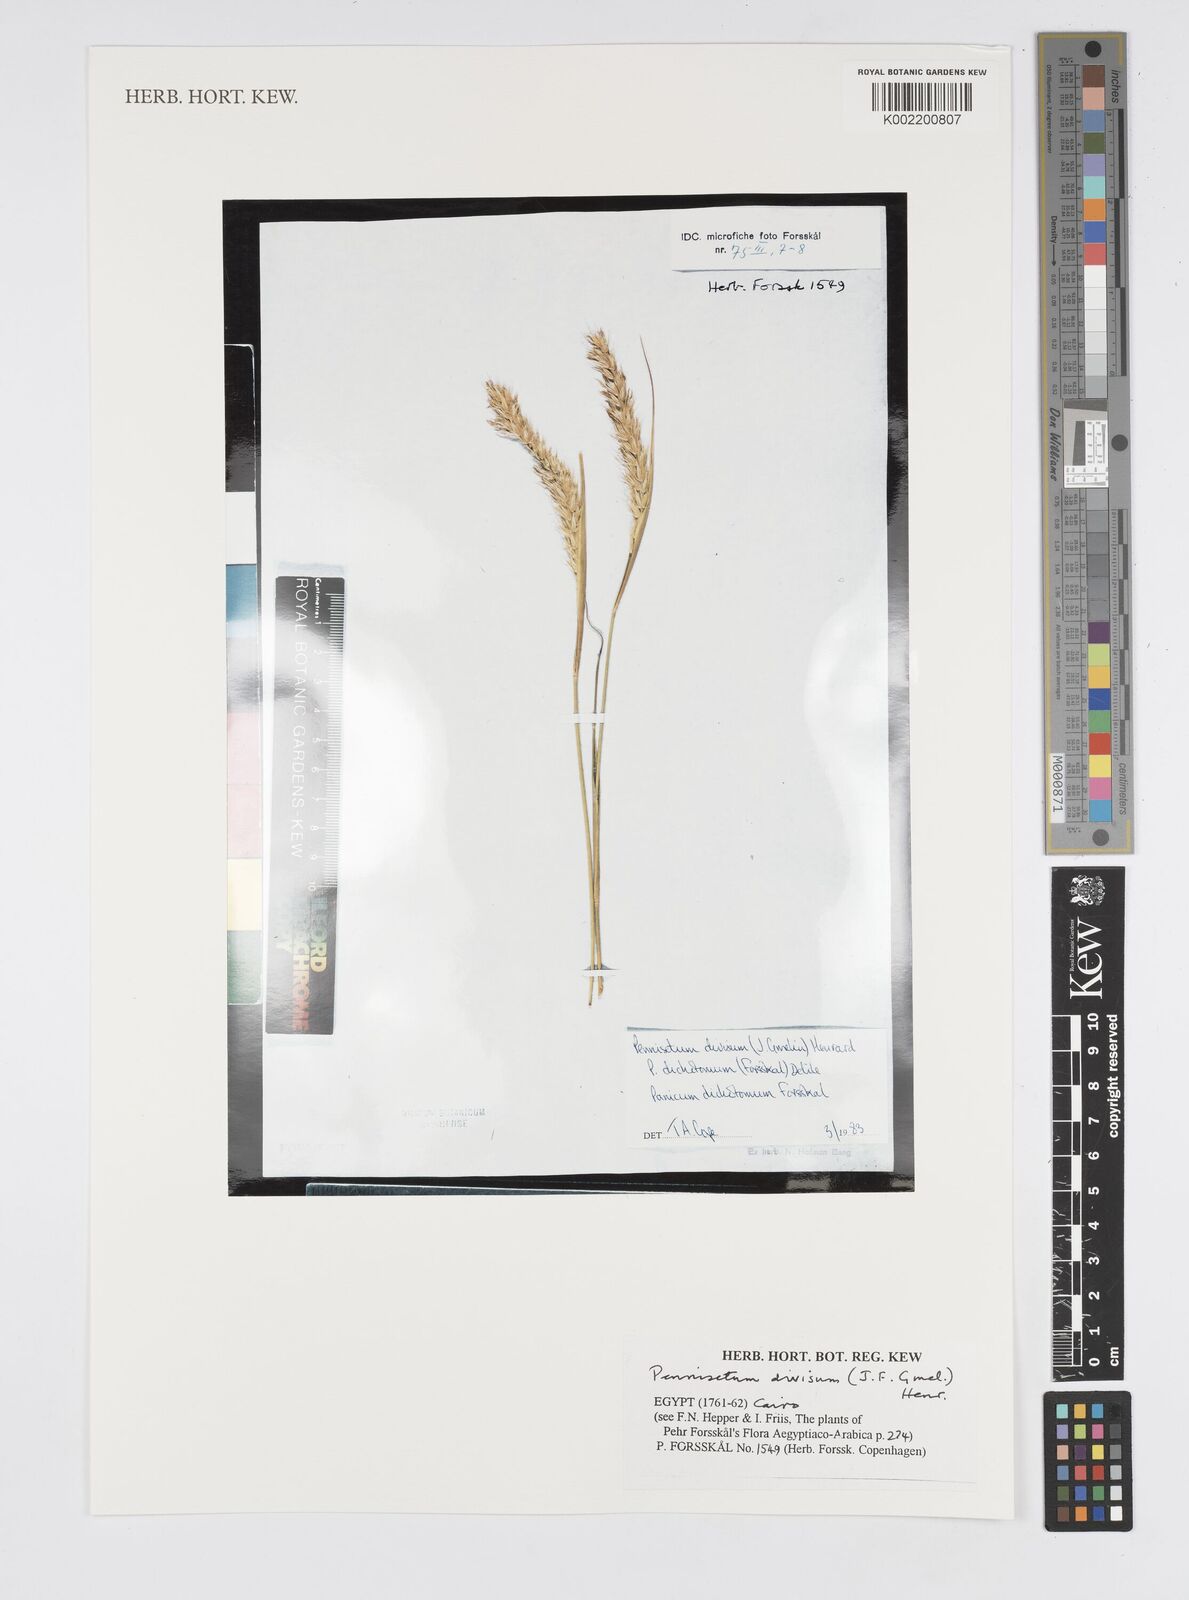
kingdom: Plantae
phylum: Tracheophyta
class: Liliopsida
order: Poales
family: Poaceae
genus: Cenchrus
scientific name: Cenchrus divisus
